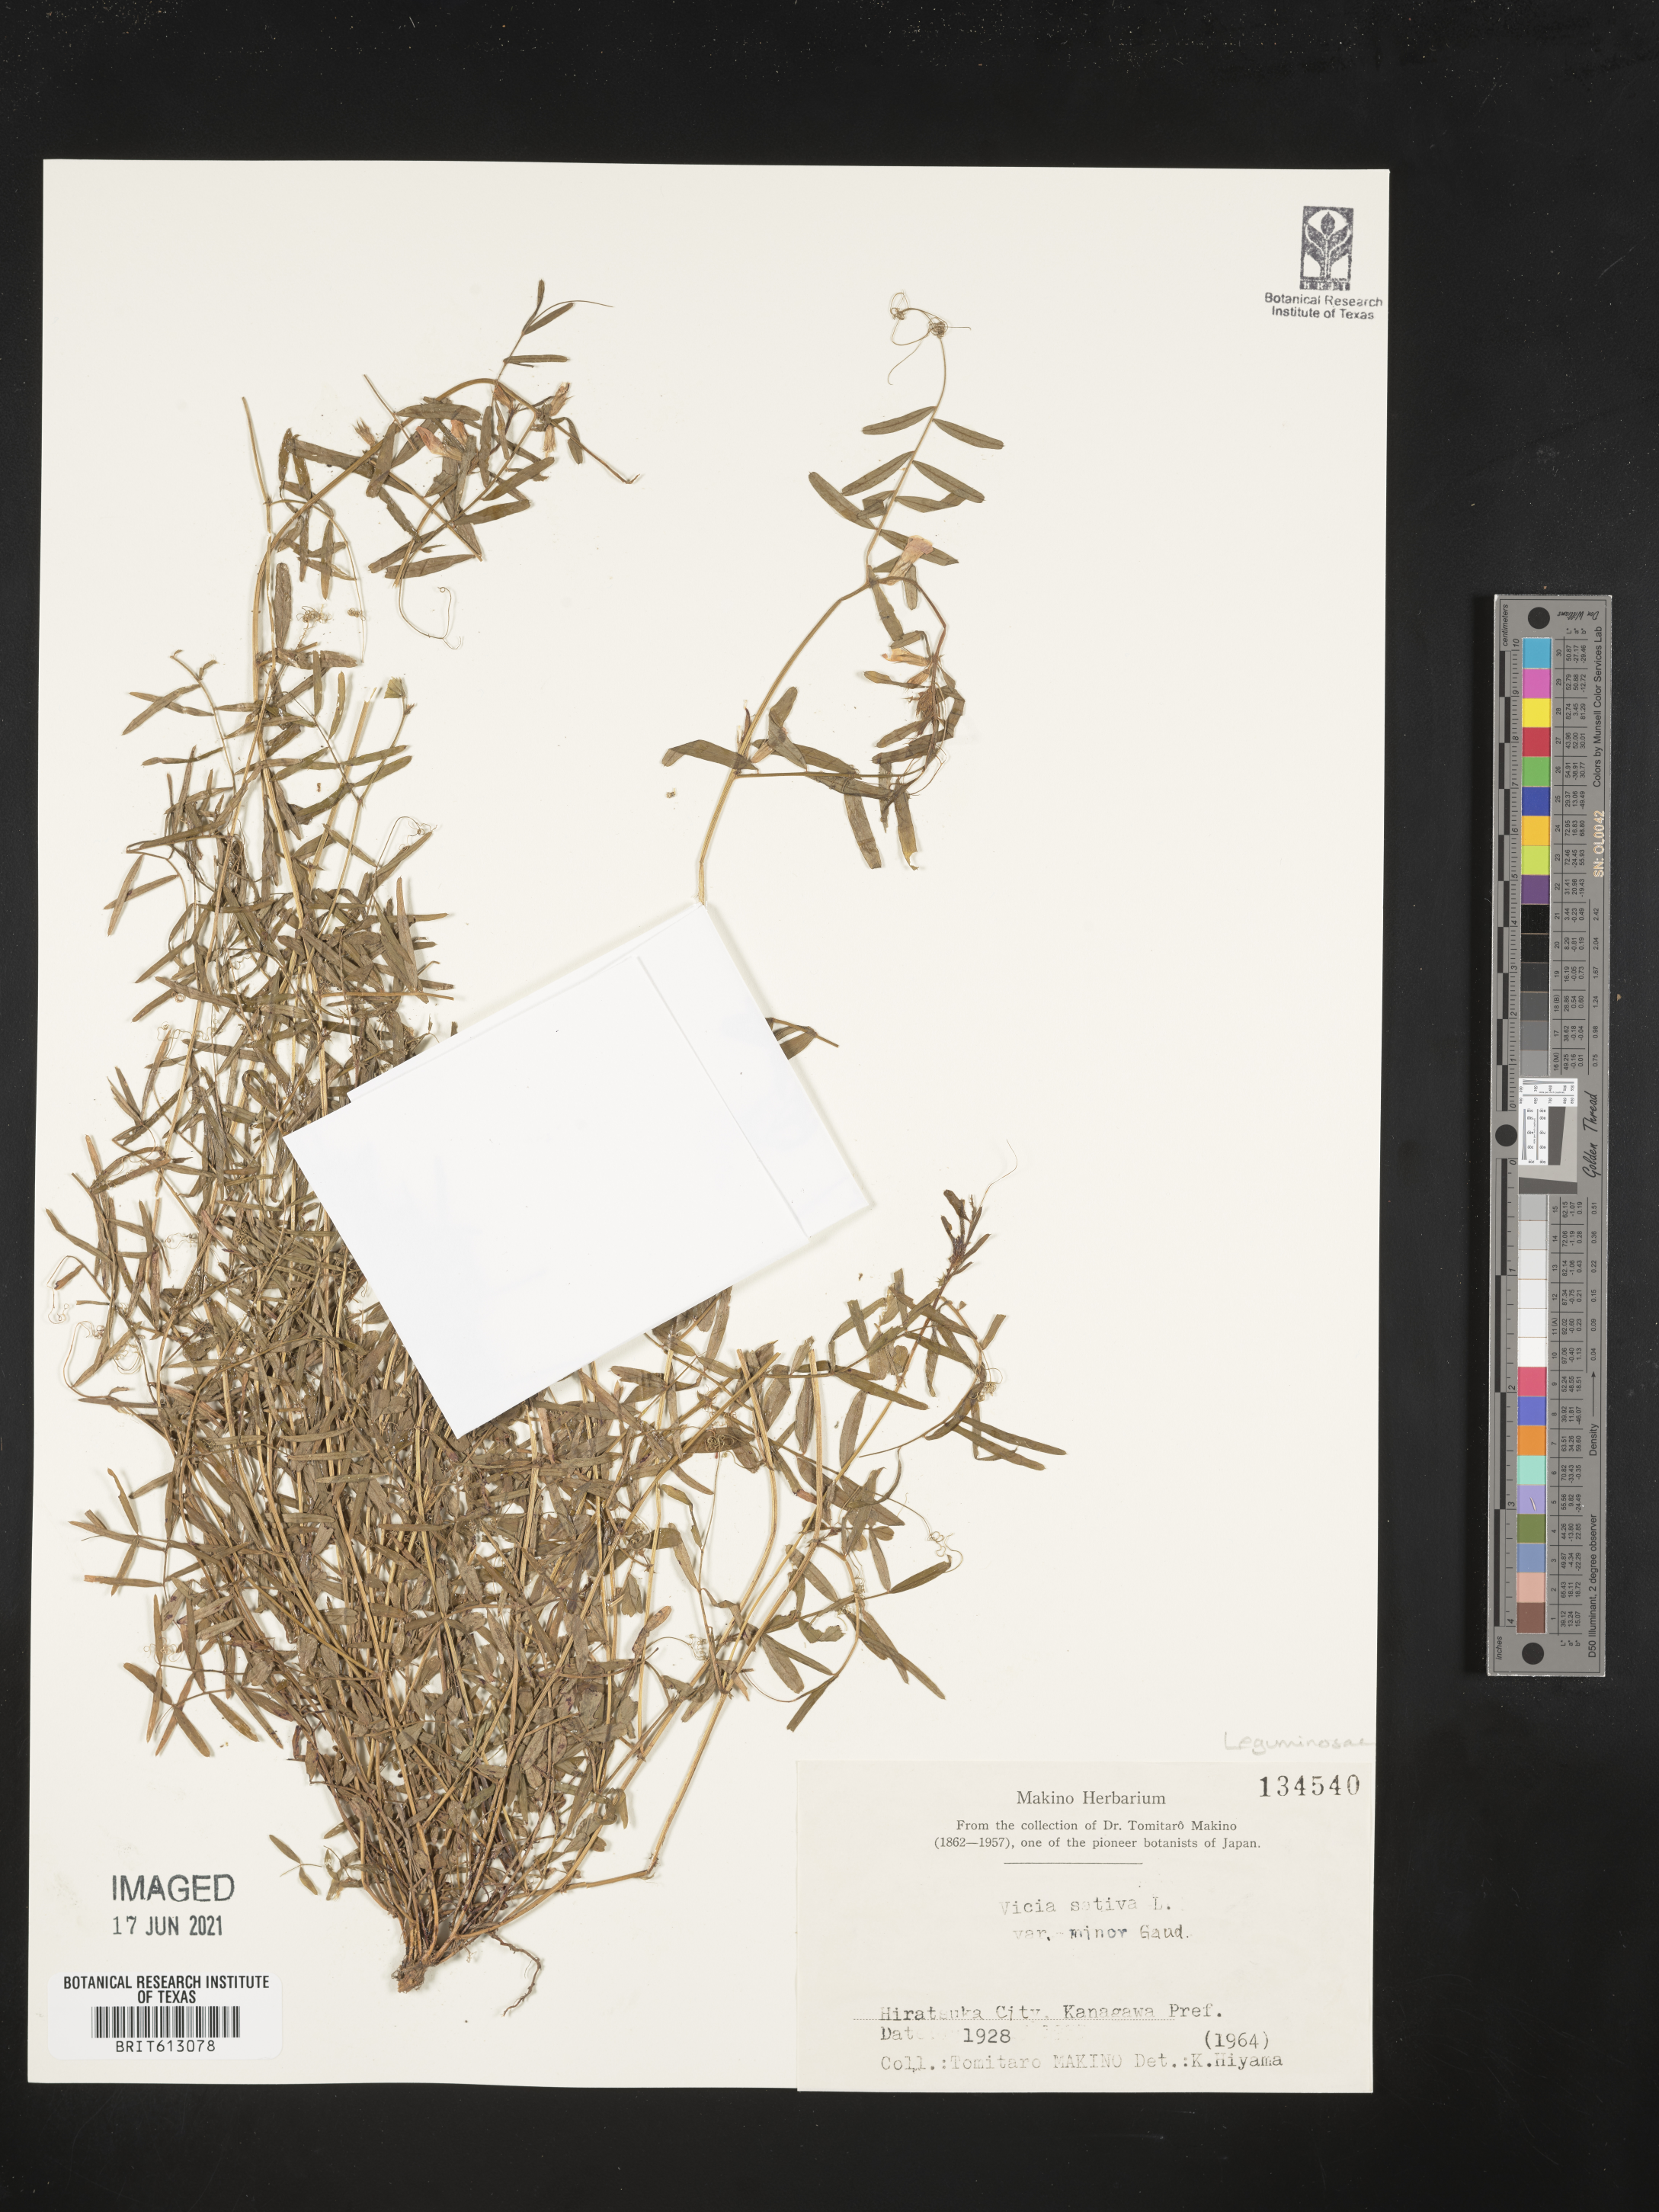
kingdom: Plantae
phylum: Tracheophyta
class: Magnoliopsida
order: Fabales
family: Fabaceae
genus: Vicia
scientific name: Vicia sativa
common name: Garden vetch
